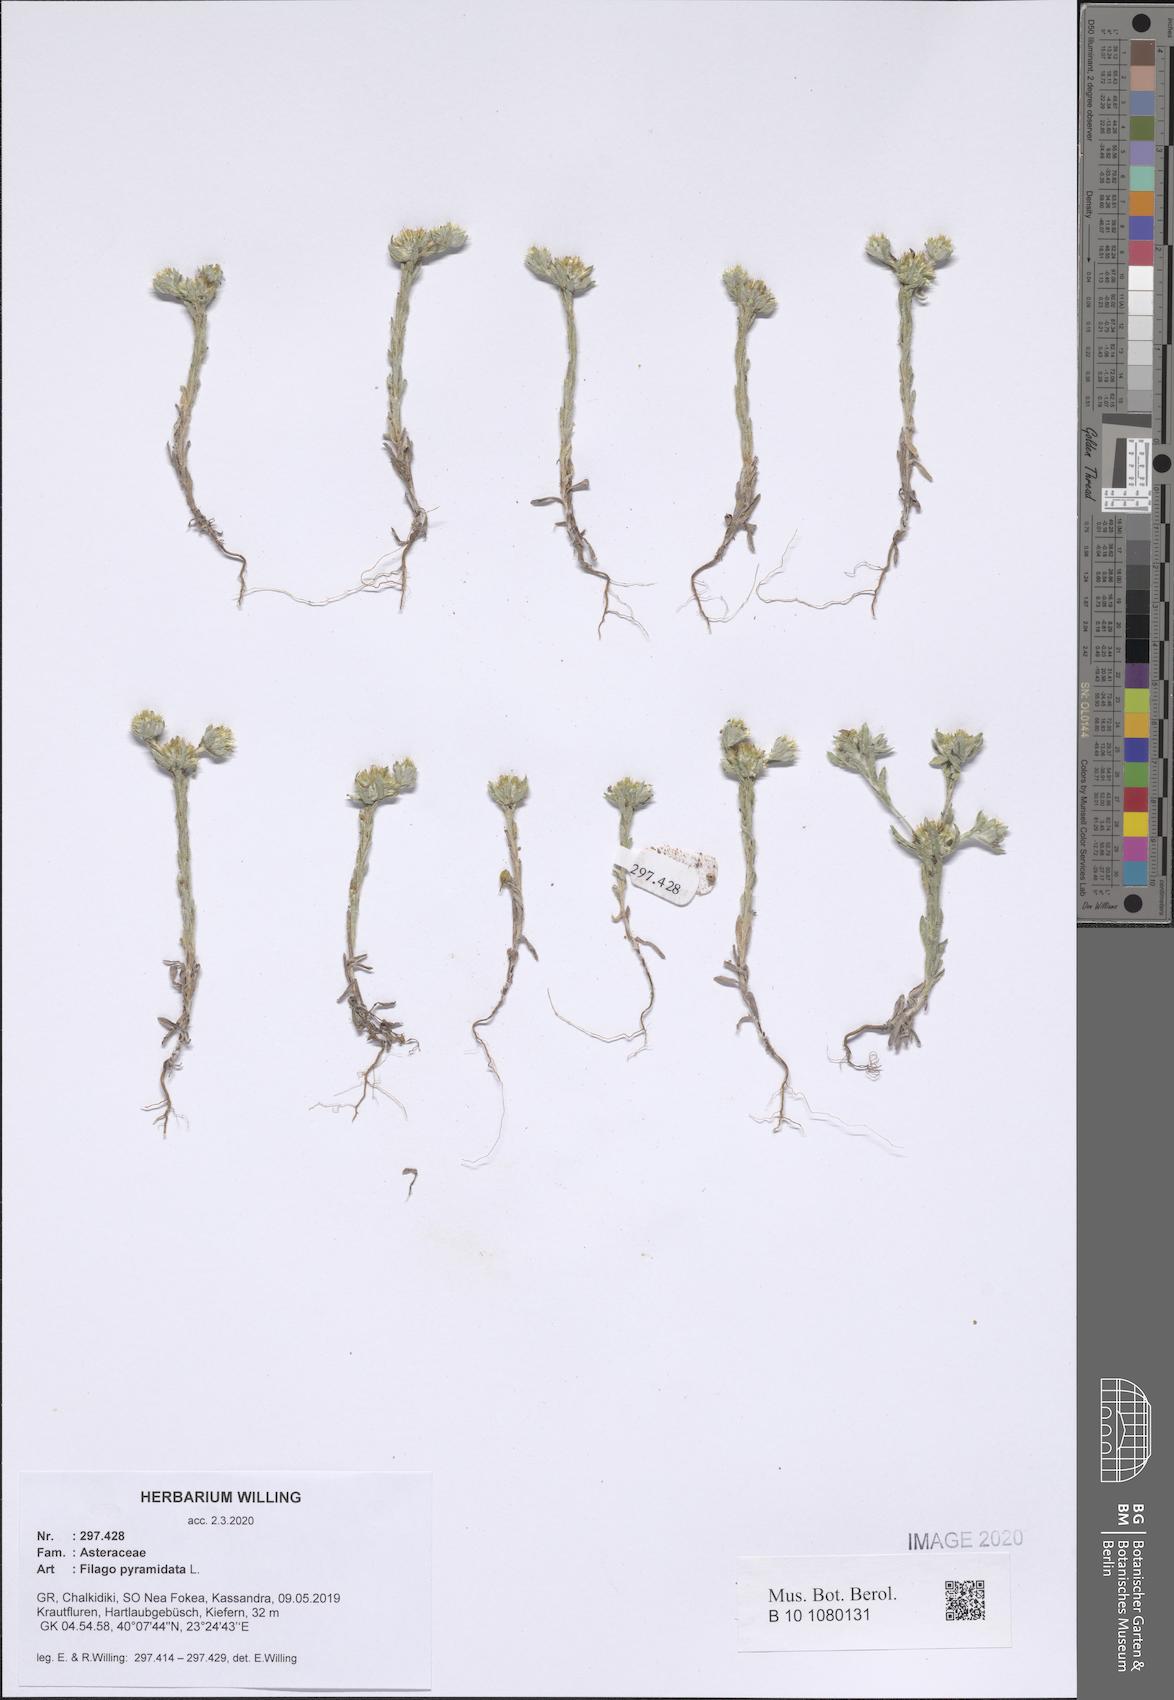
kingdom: Plantae
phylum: Tracheophyta
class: Magnoliopsida
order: Asterales
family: Asteraceae
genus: Filago
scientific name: Filago pyramidata
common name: Broad-leaved cudweed
